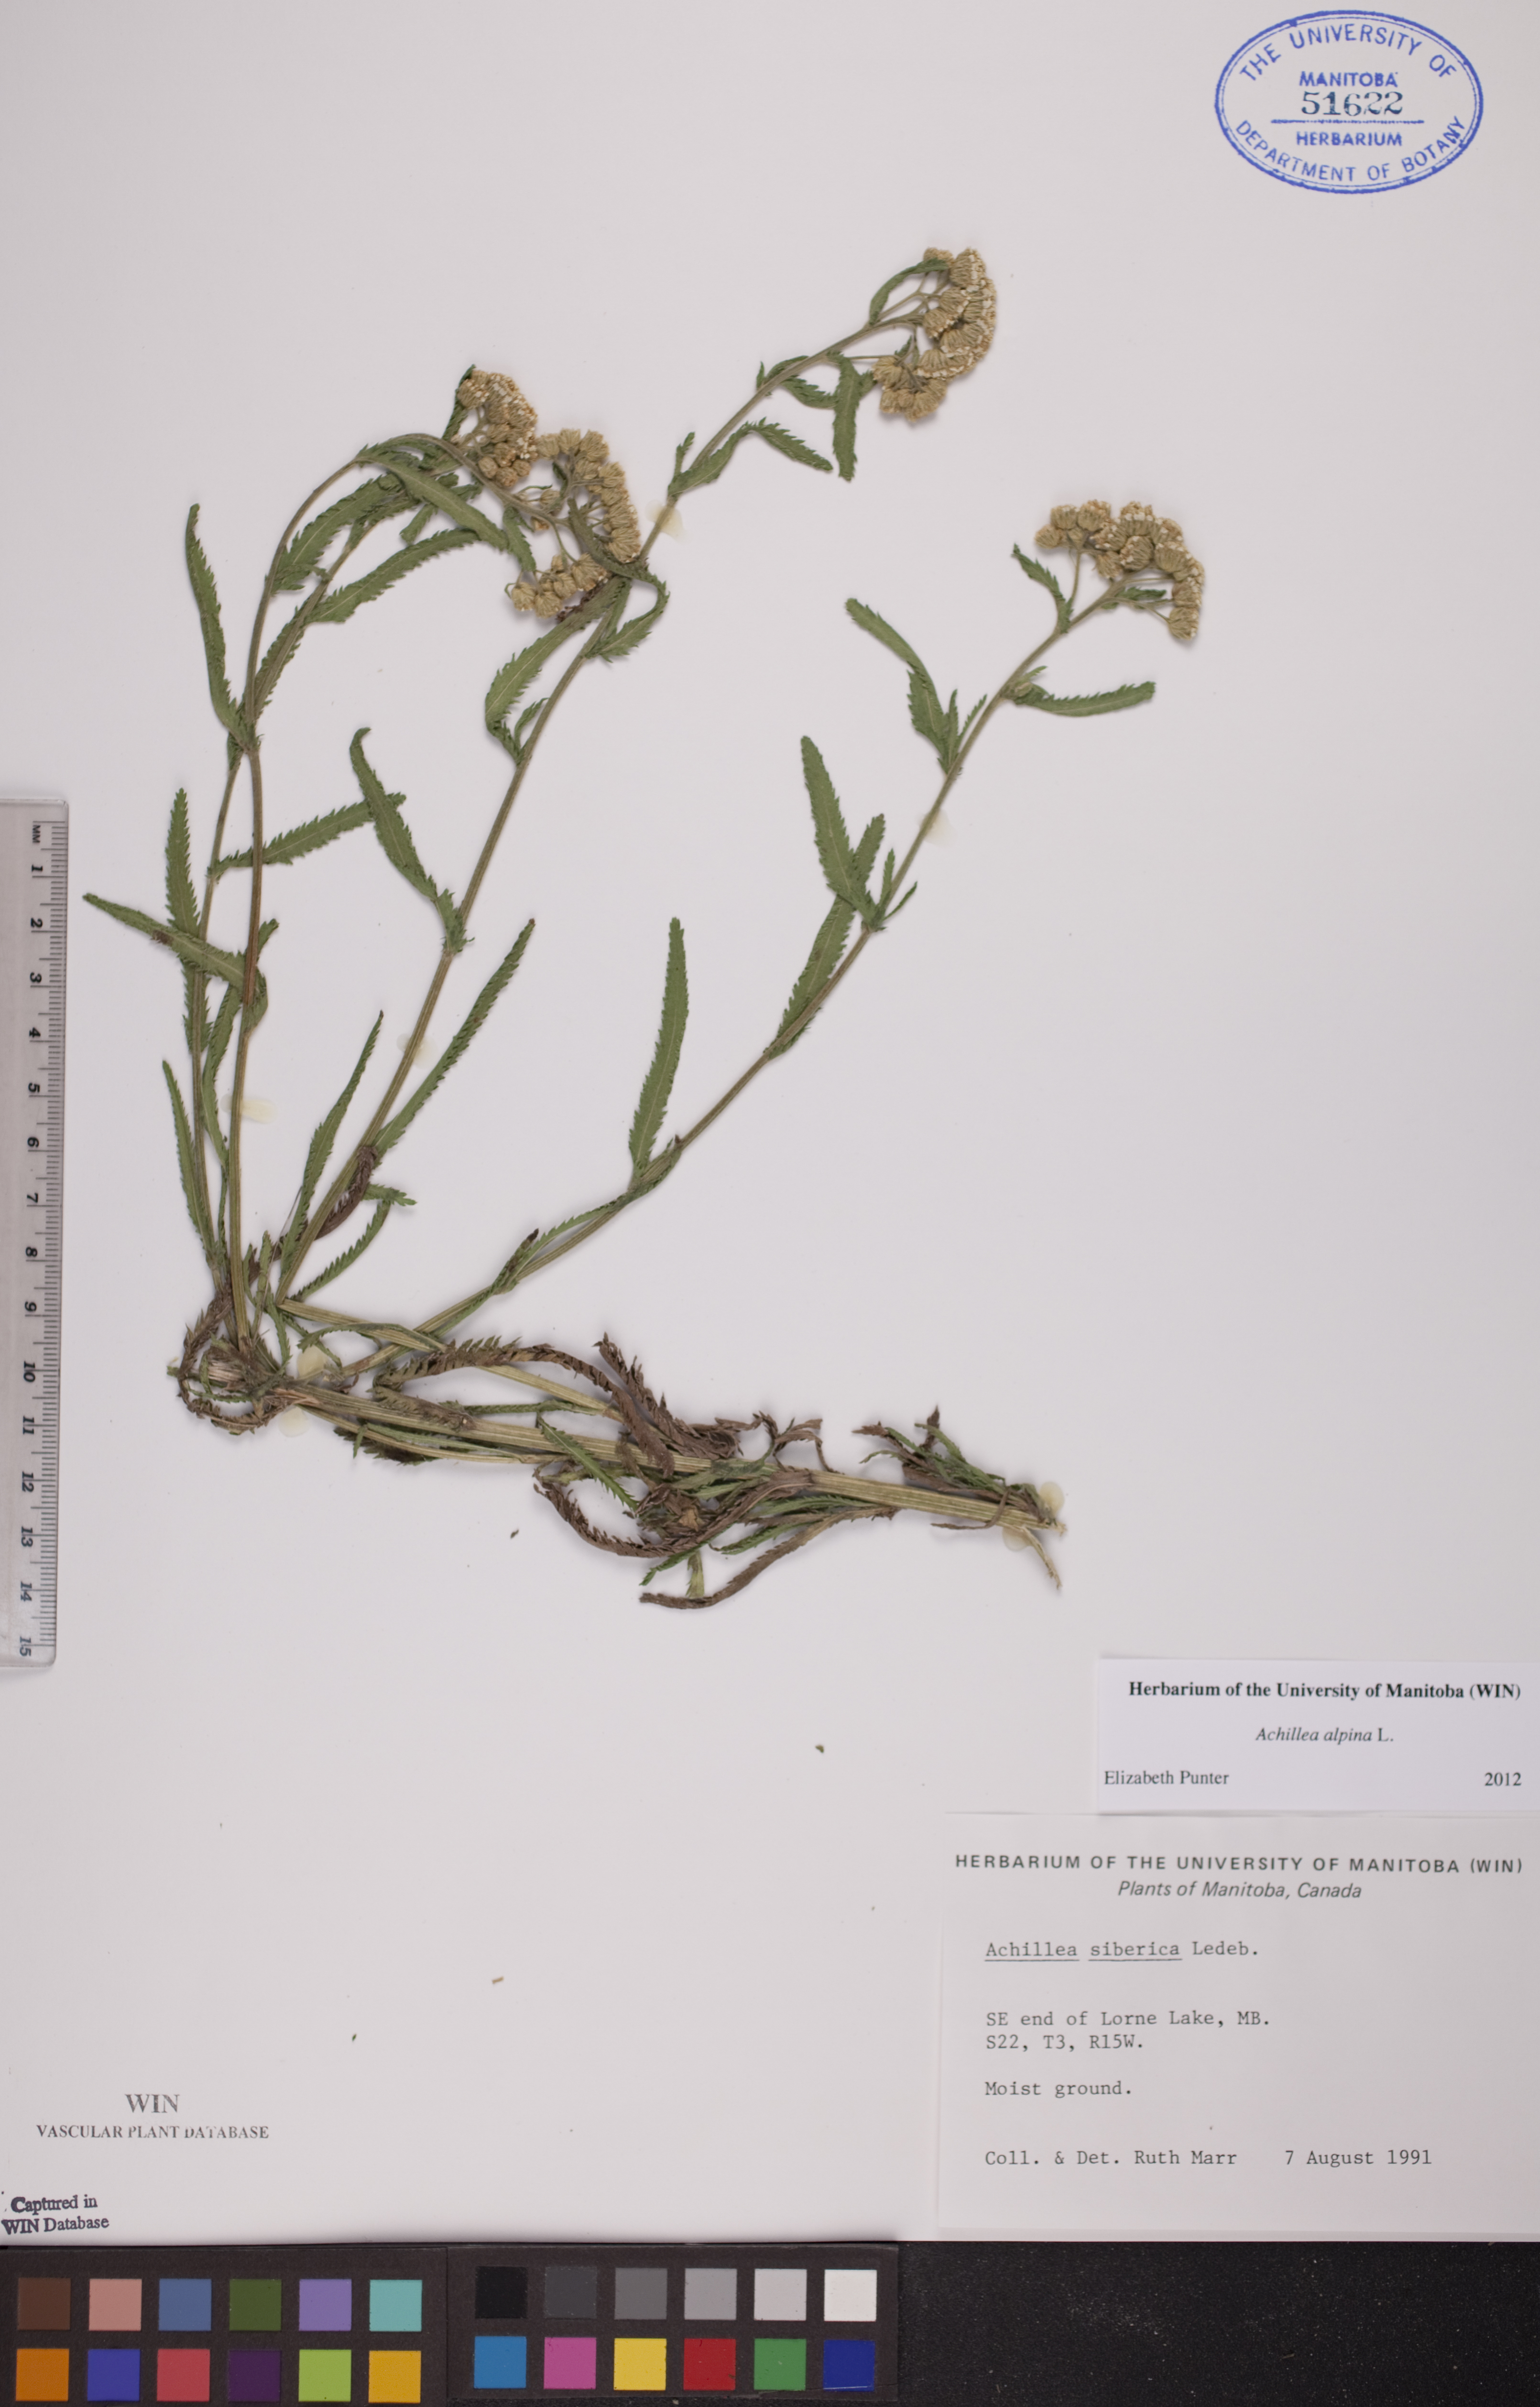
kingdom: Plantae
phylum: Tracheophyta
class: Magnoliopsida
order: Asterales
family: Asteraceae
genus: Achillea
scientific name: Achillea alpina
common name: Siberian yarrow
